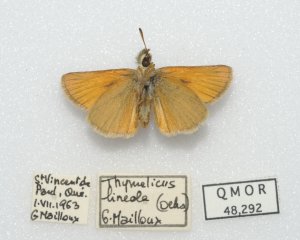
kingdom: Animalia
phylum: Arthropoda
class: Insecta
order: Lepidoptera
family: Hesperiidae
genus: Thymelicus
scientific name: Thymelicus lineola
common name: European Skipper
